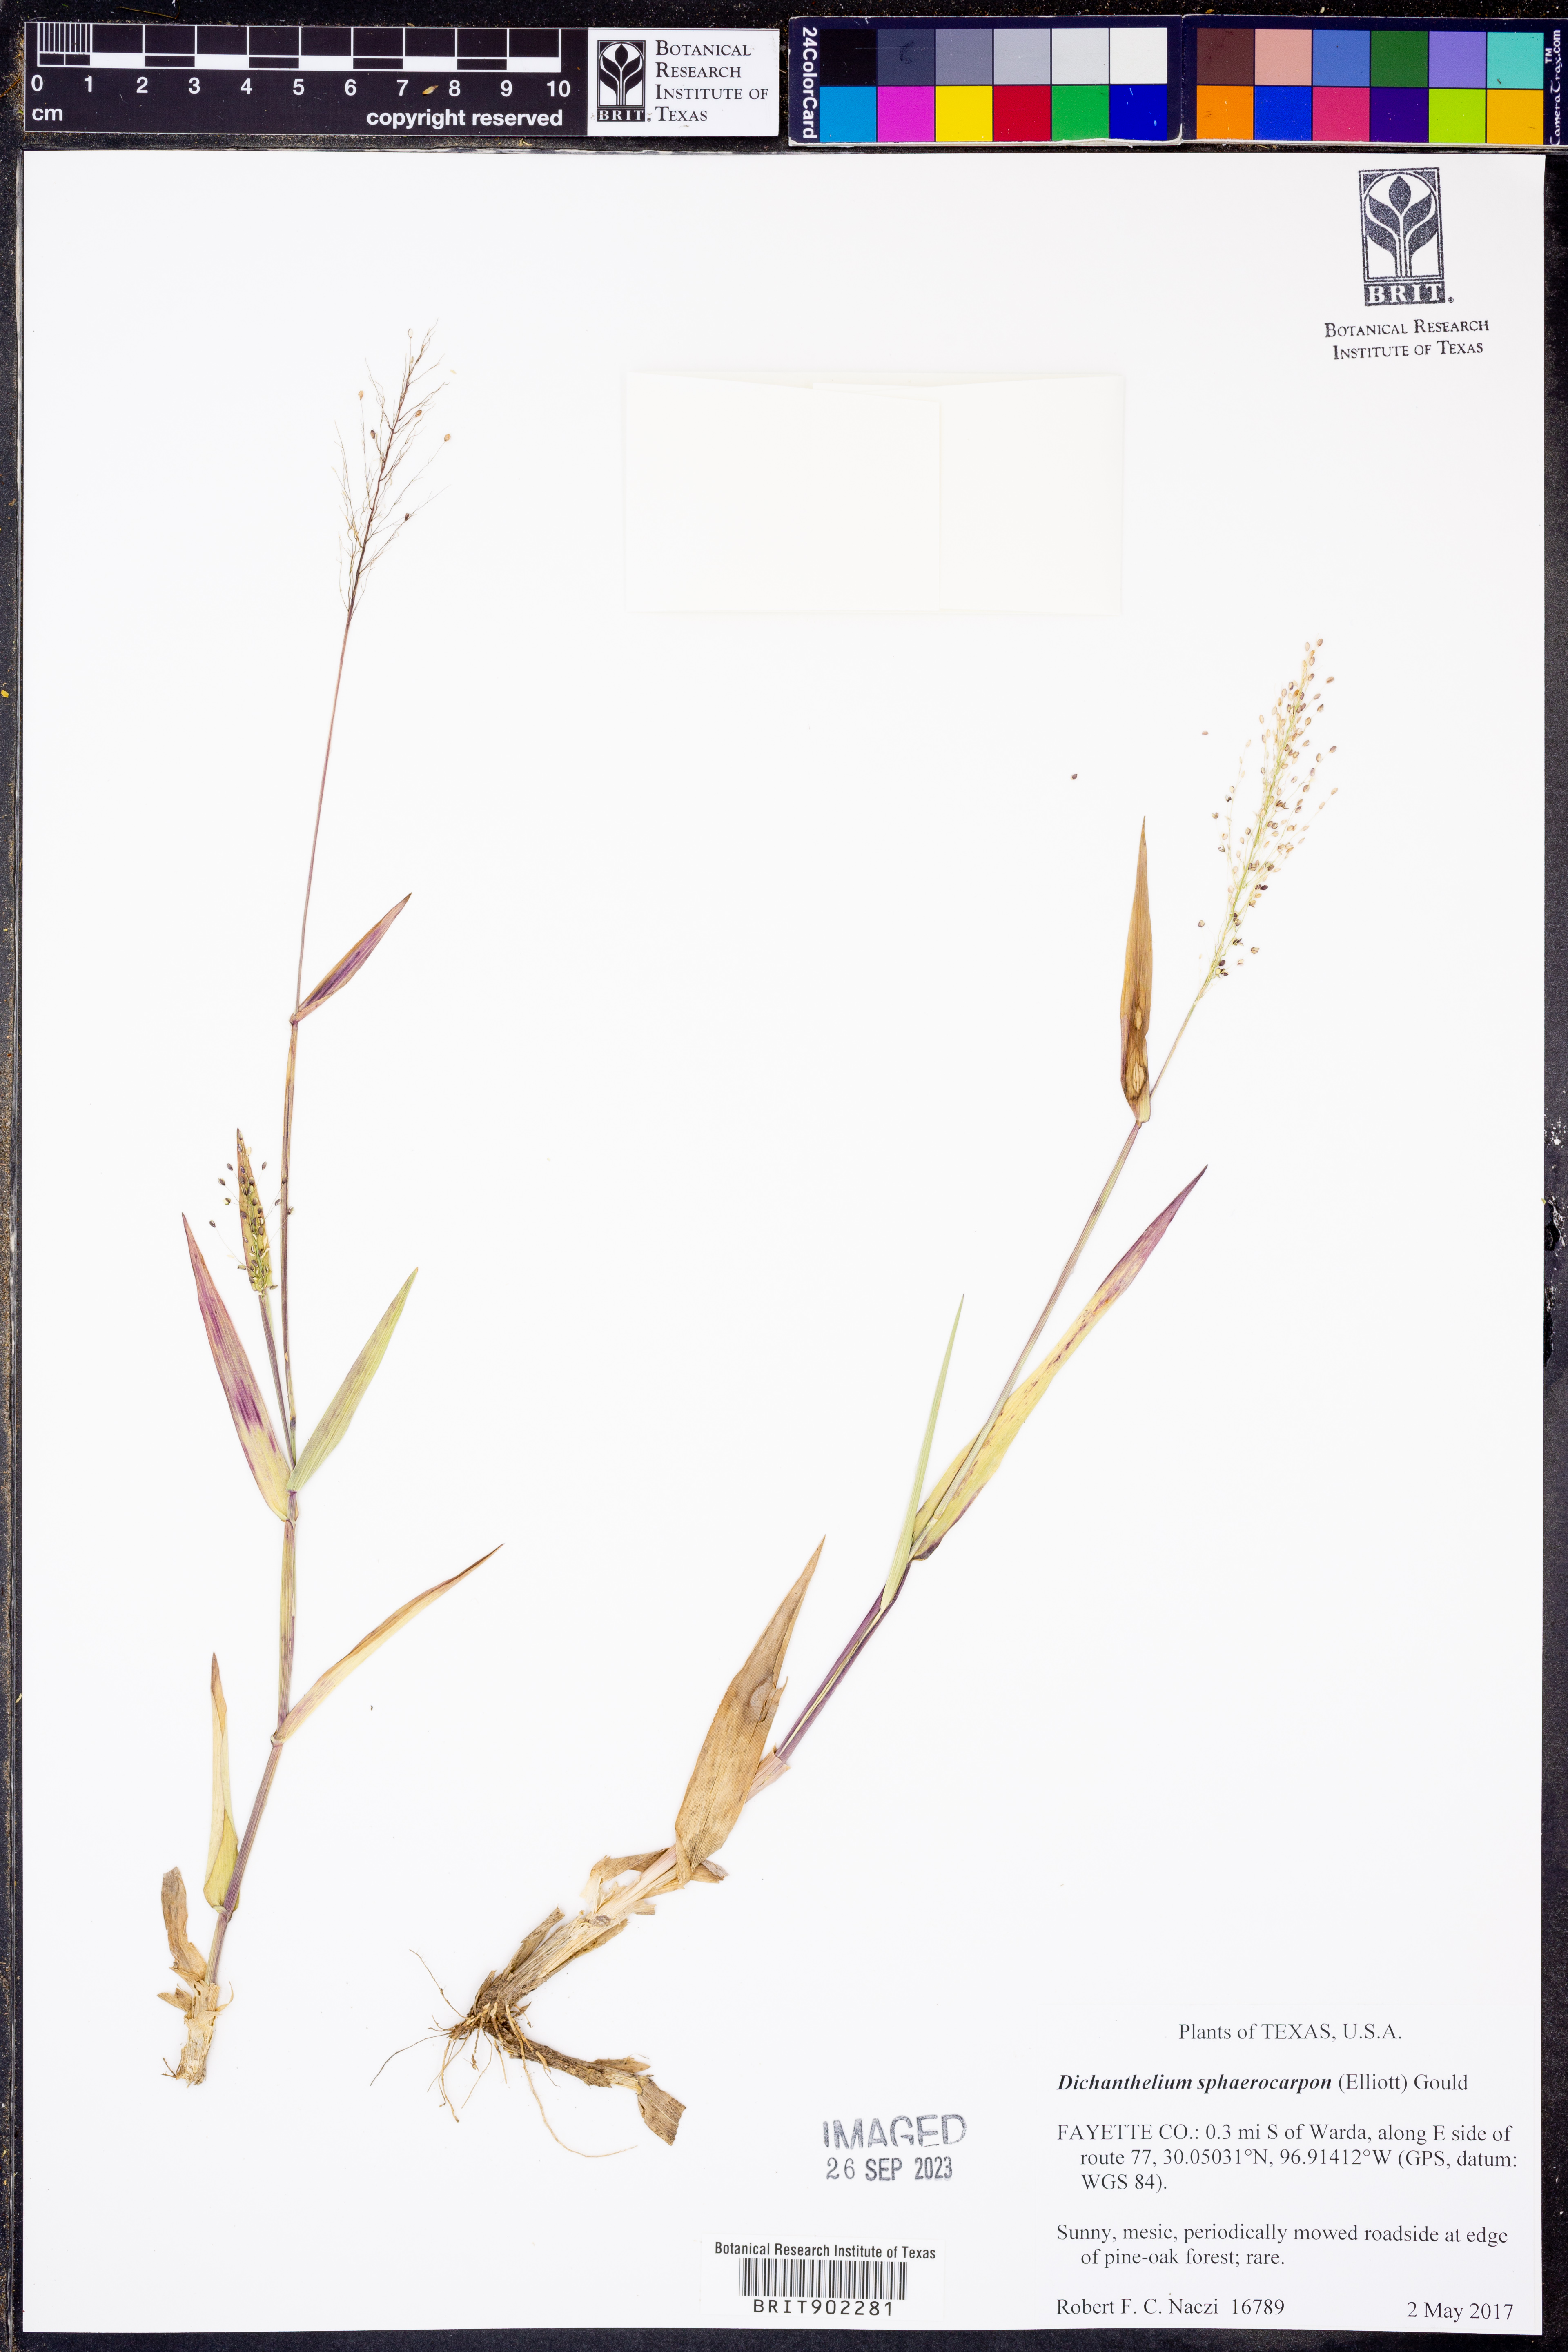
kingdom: Plantae
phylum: Tracheophyta
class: Liliopsida
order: Poales
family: Poaceae
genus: Dichanthelium
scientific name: Dichanthelium sphaerocarpon
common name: Round-fruited panicgrass
